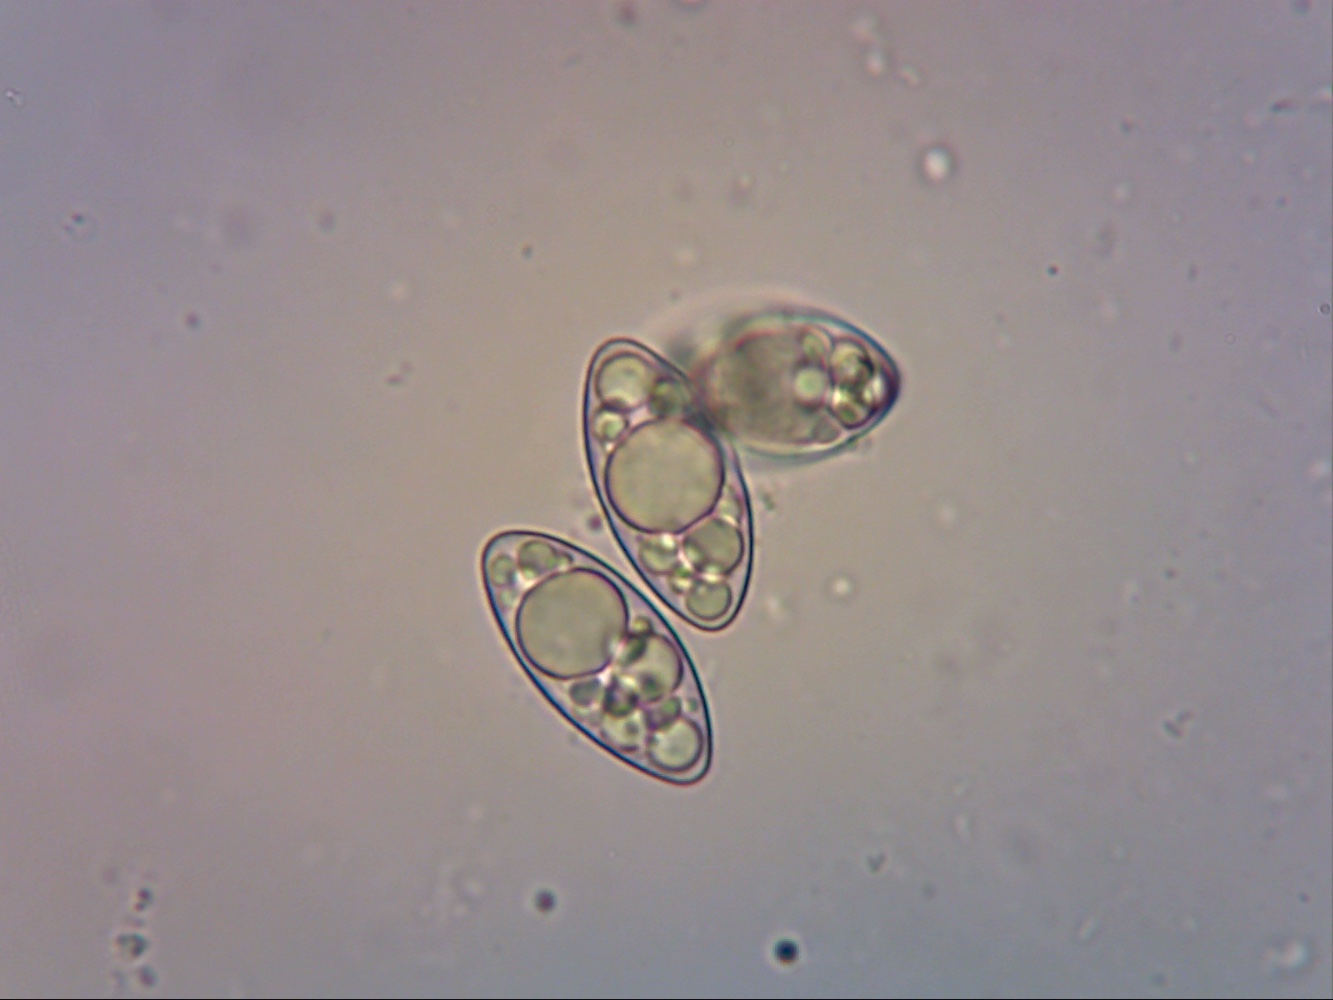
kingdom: Fungi
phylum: Ascomycota
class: Pezizomycetes
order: Pezizales
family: Helvellaceae
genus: Helvella
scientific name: Helvella macropus
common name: højstokket foldhat
